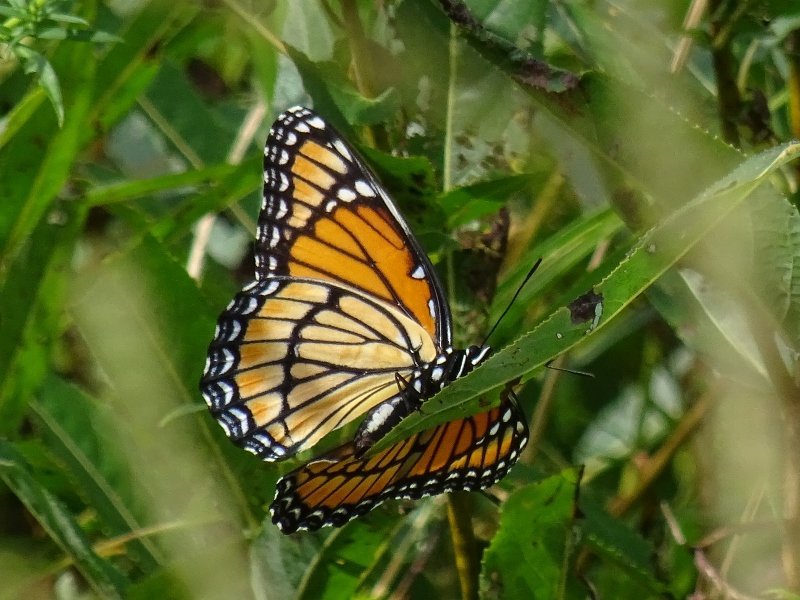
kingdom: Animalia
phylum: Arthropoda
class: Insecta
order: Lepidoptera
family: Nymphalidae
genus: Limenitis
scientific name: Limenitis archippus
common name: Viceroy
